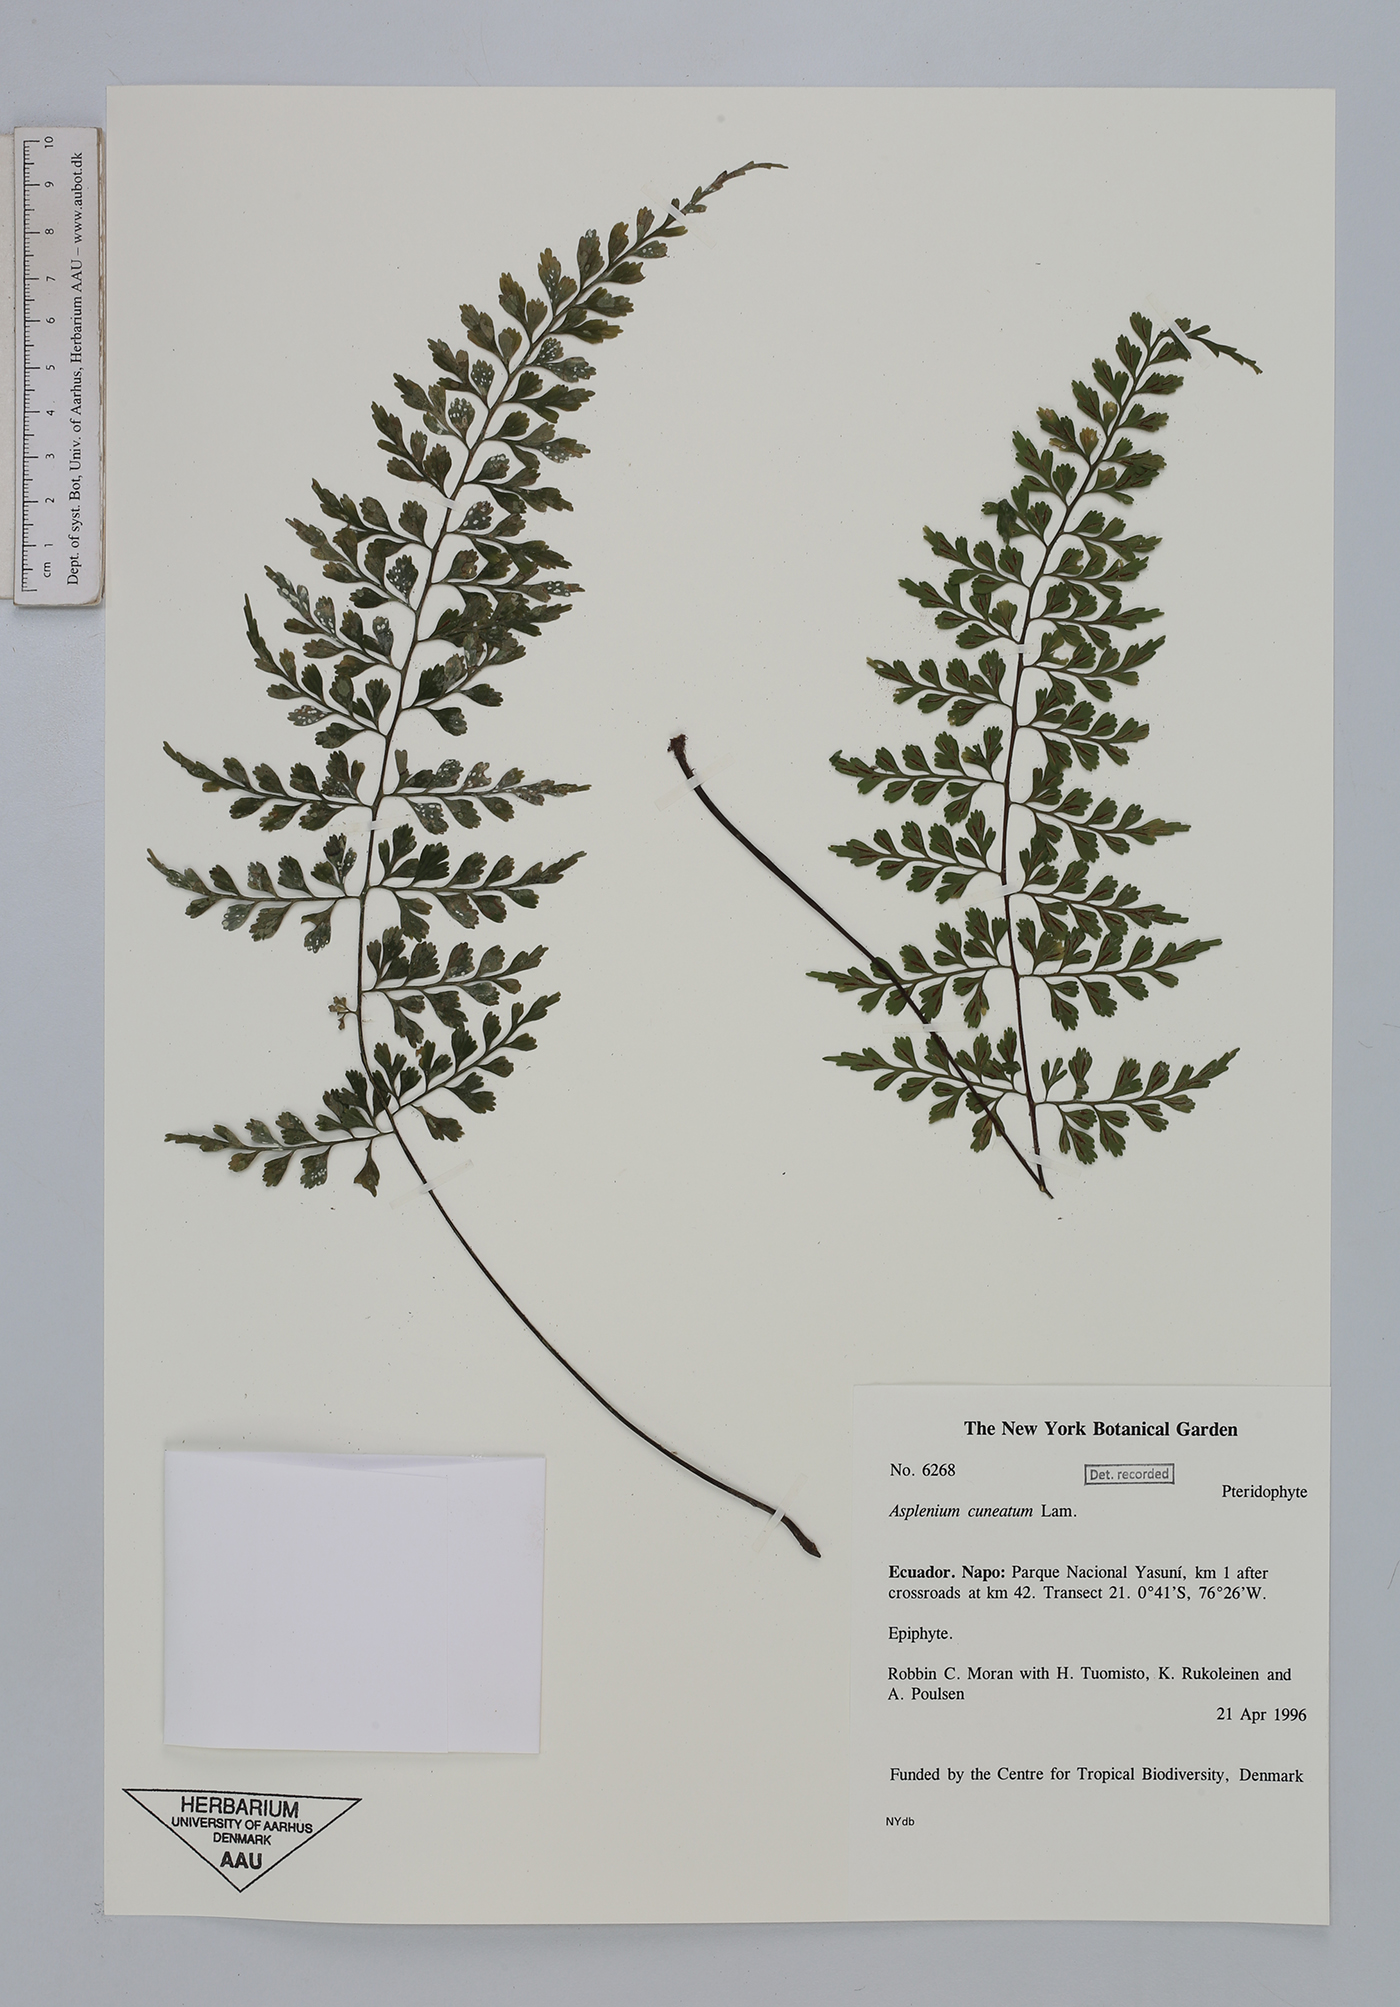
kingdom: Plantae
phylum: Tracheophyta
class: Polypodiopsida
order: Polypodiales
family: Aspleniaceae
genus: Asplenium
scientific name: Asplenium cuneatum
